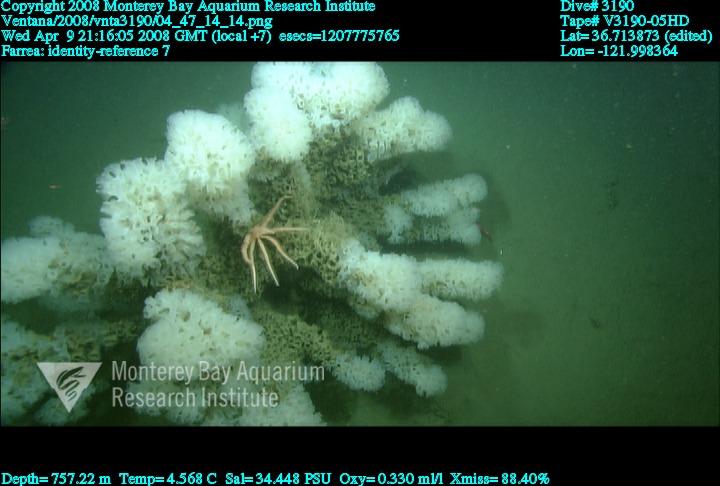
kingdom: Animalia
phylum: Porifera
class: Hexactinellida
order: Sceptrulophora
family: Farreidae
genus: Farrea
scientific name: Farrea
